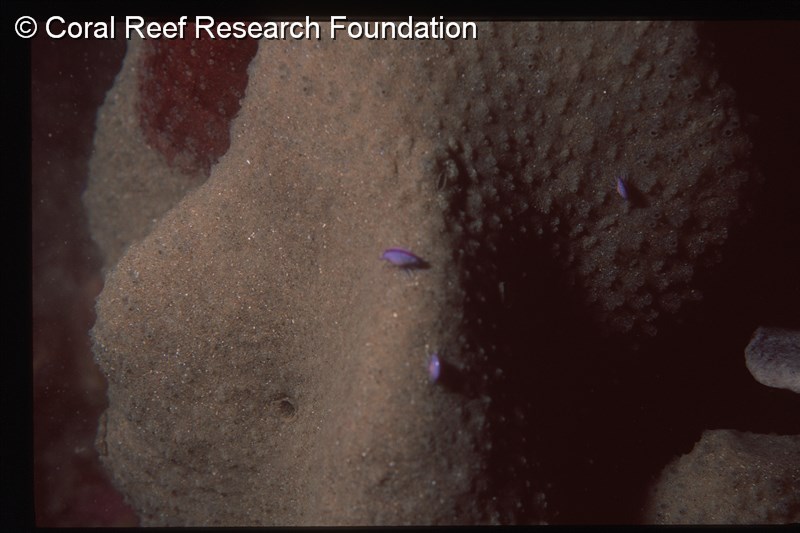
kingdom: Animalia
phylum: Chordata
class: Ascidiacea
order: Aplousobranchia
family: Polycitoridae
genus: Eudistoma
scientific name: Eudistoma
